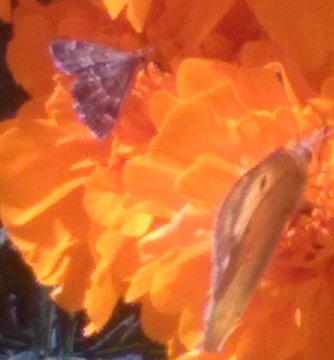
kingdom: Animalia
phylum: Arthropoda
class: Insecta
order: Lepidoptera
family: Hesperiidae
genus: Achlyodes
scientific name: Achlyodes busirus
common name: Giant Sicklewing
